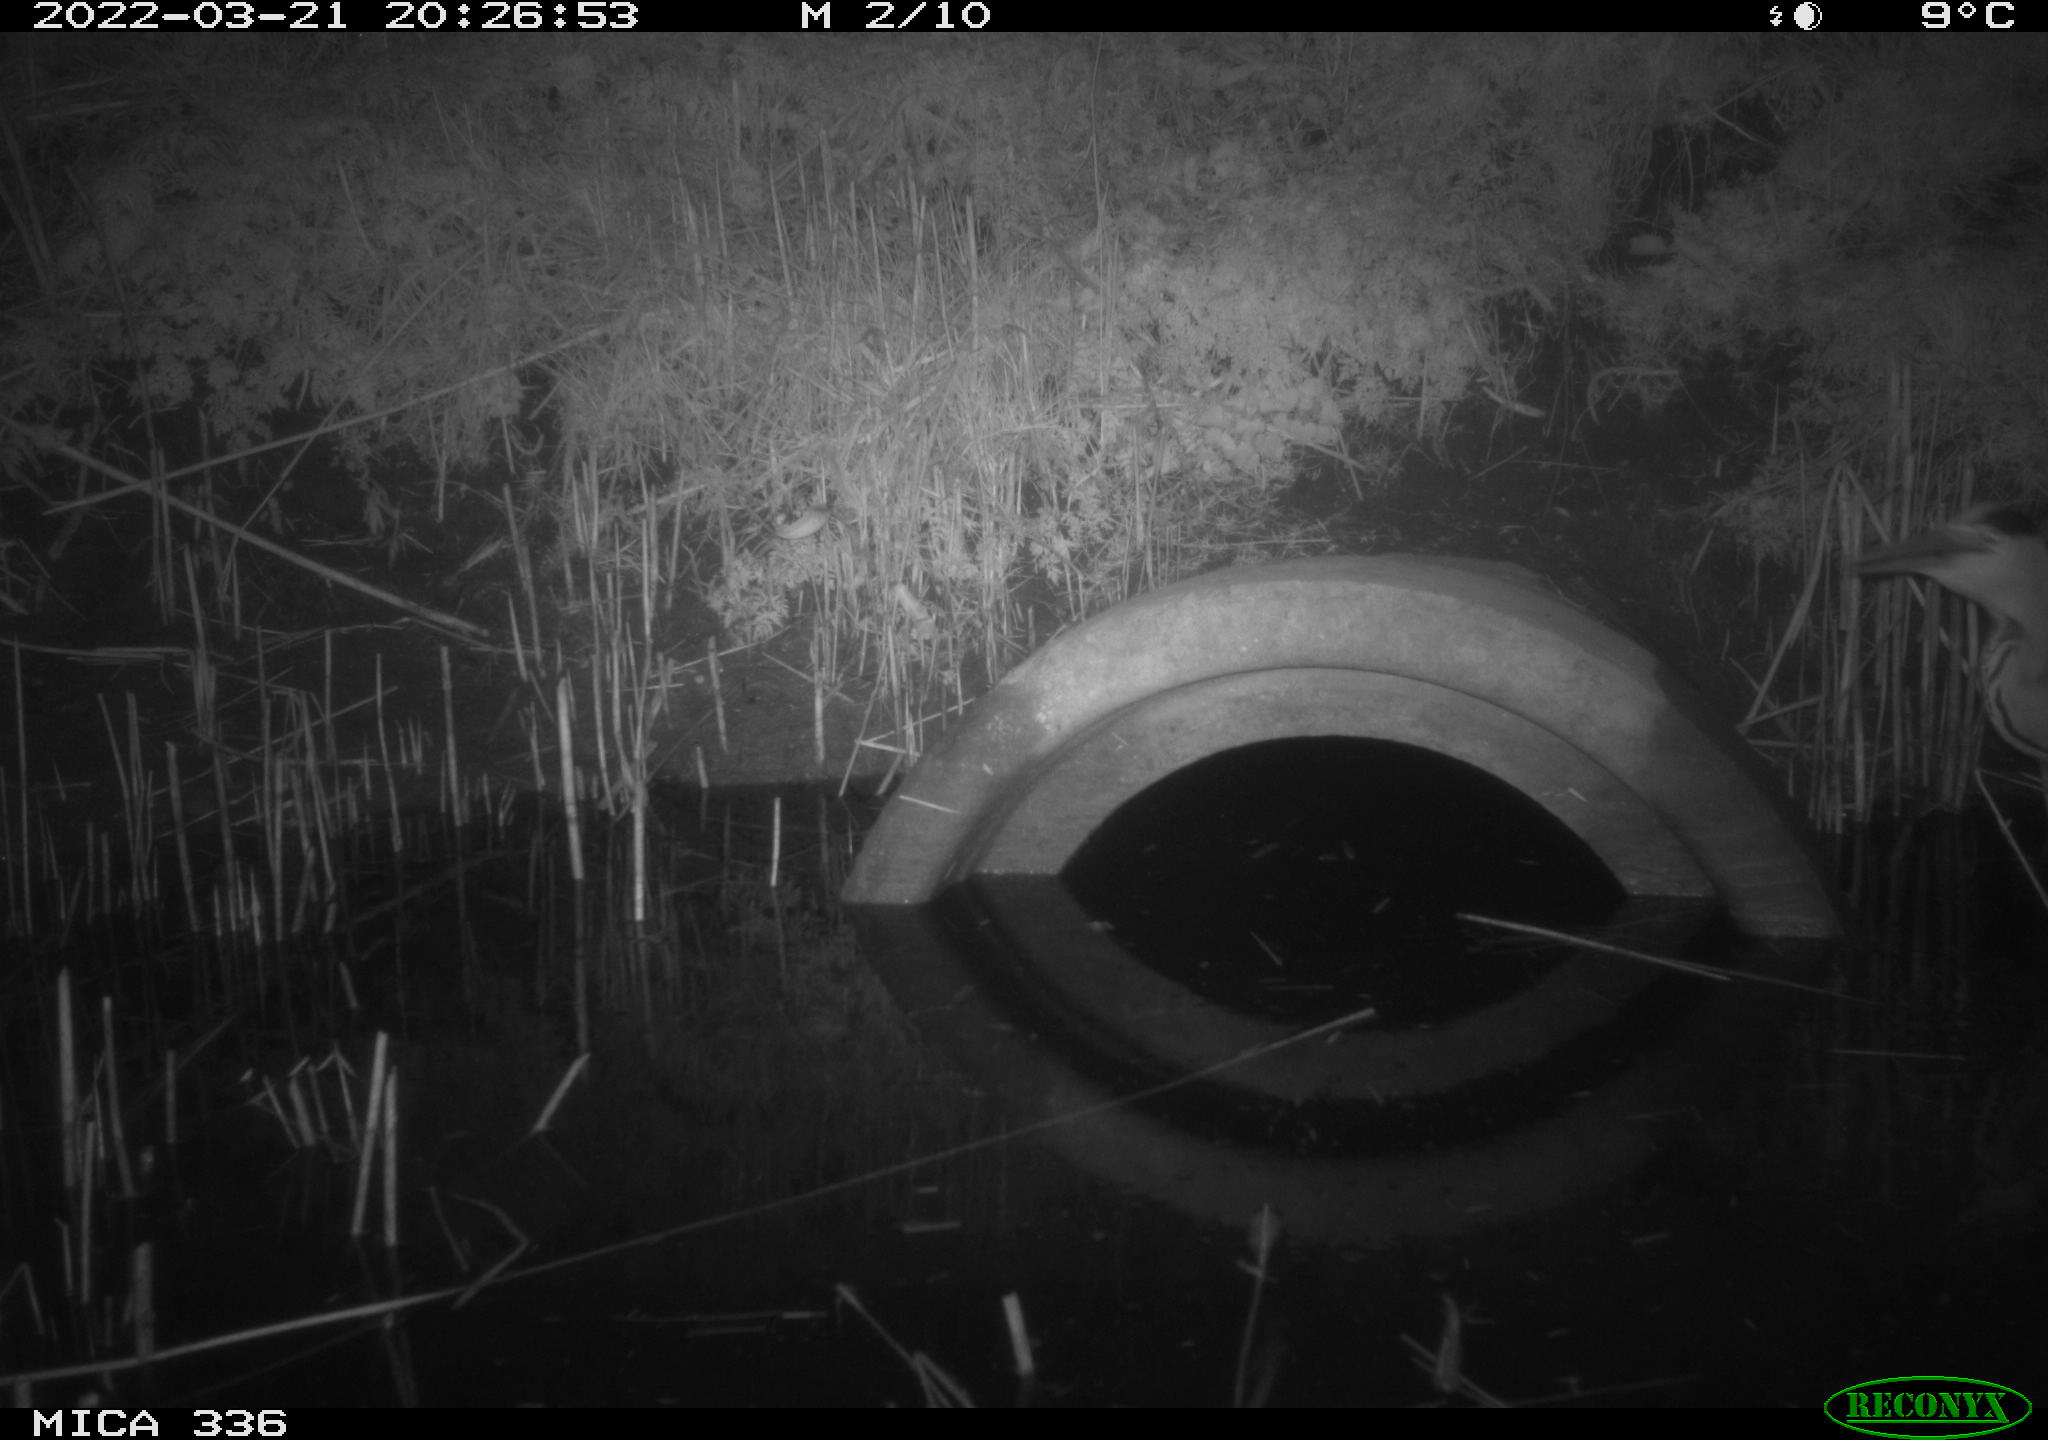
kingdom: Animalia
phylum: Chordata
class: Aves
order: Pelecaniformes
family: Ardeidae
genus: Ardea
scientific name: Ardea cinerea
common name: Grey heron
